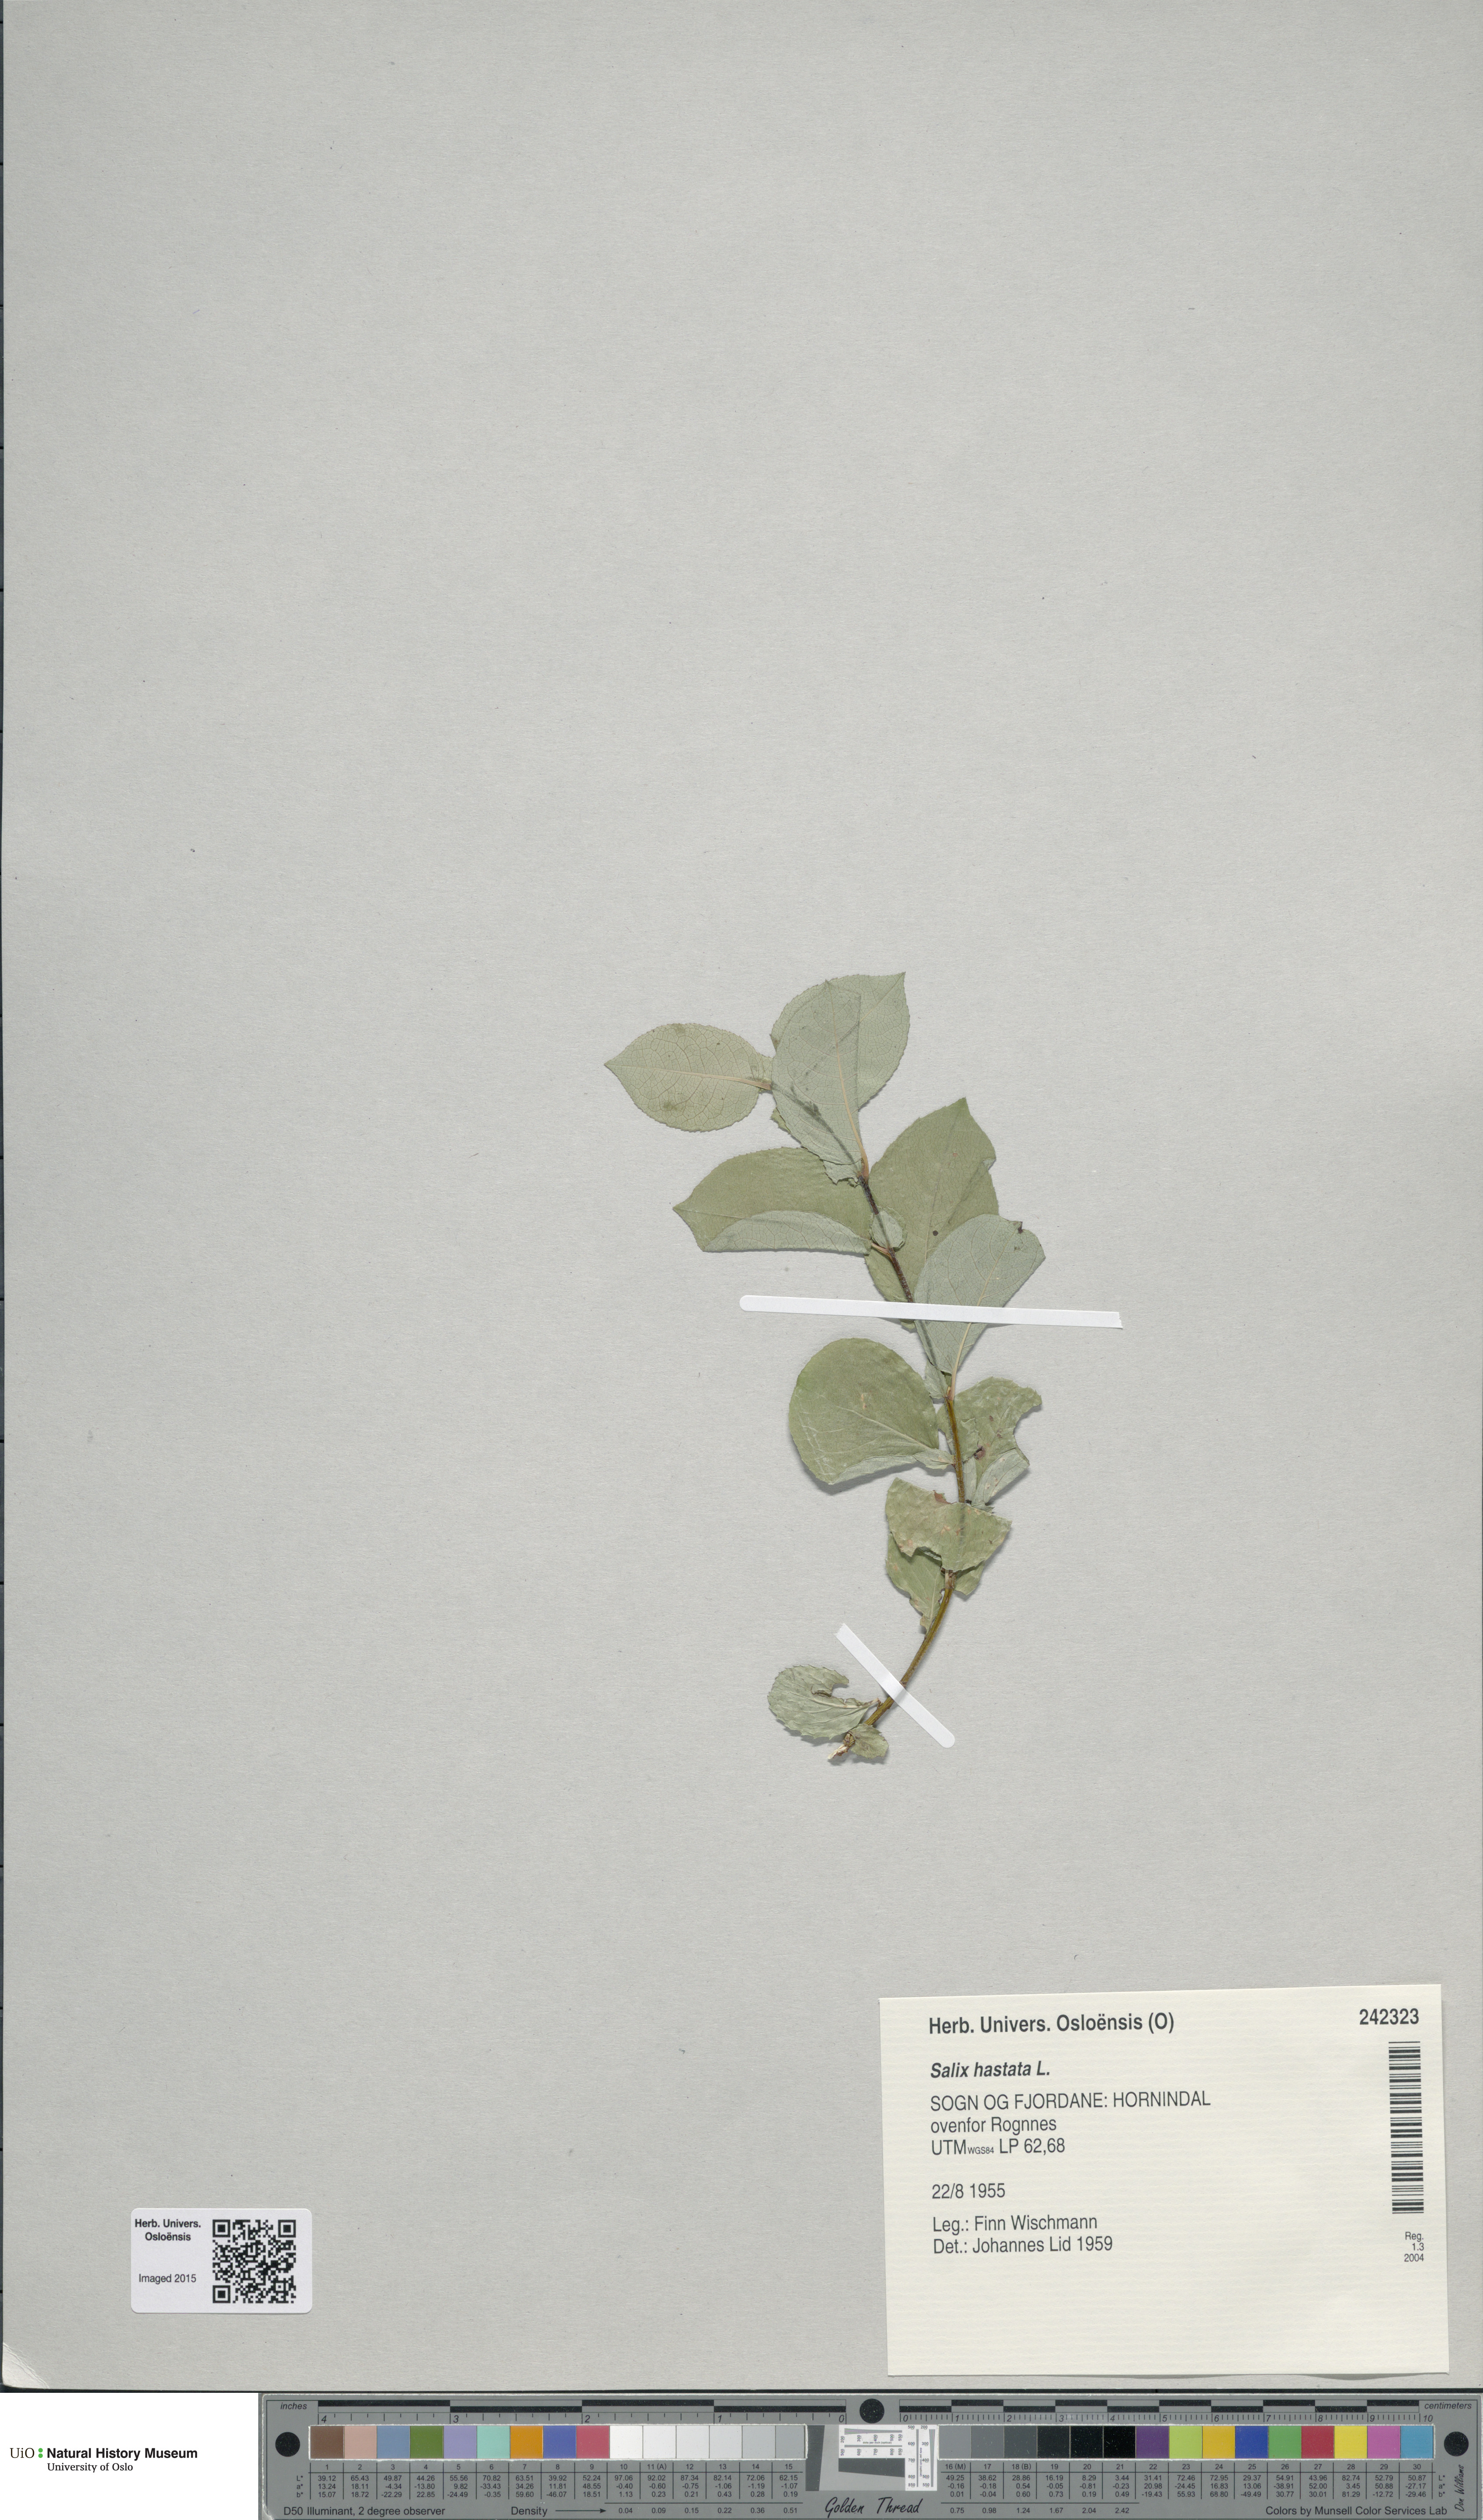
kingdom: Plantae
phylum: Tracheophyta
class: Magnoliopsida
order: Malpighiales
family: Salicaceae
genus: Salix
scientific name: Salix hastata
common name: Halberd willow
